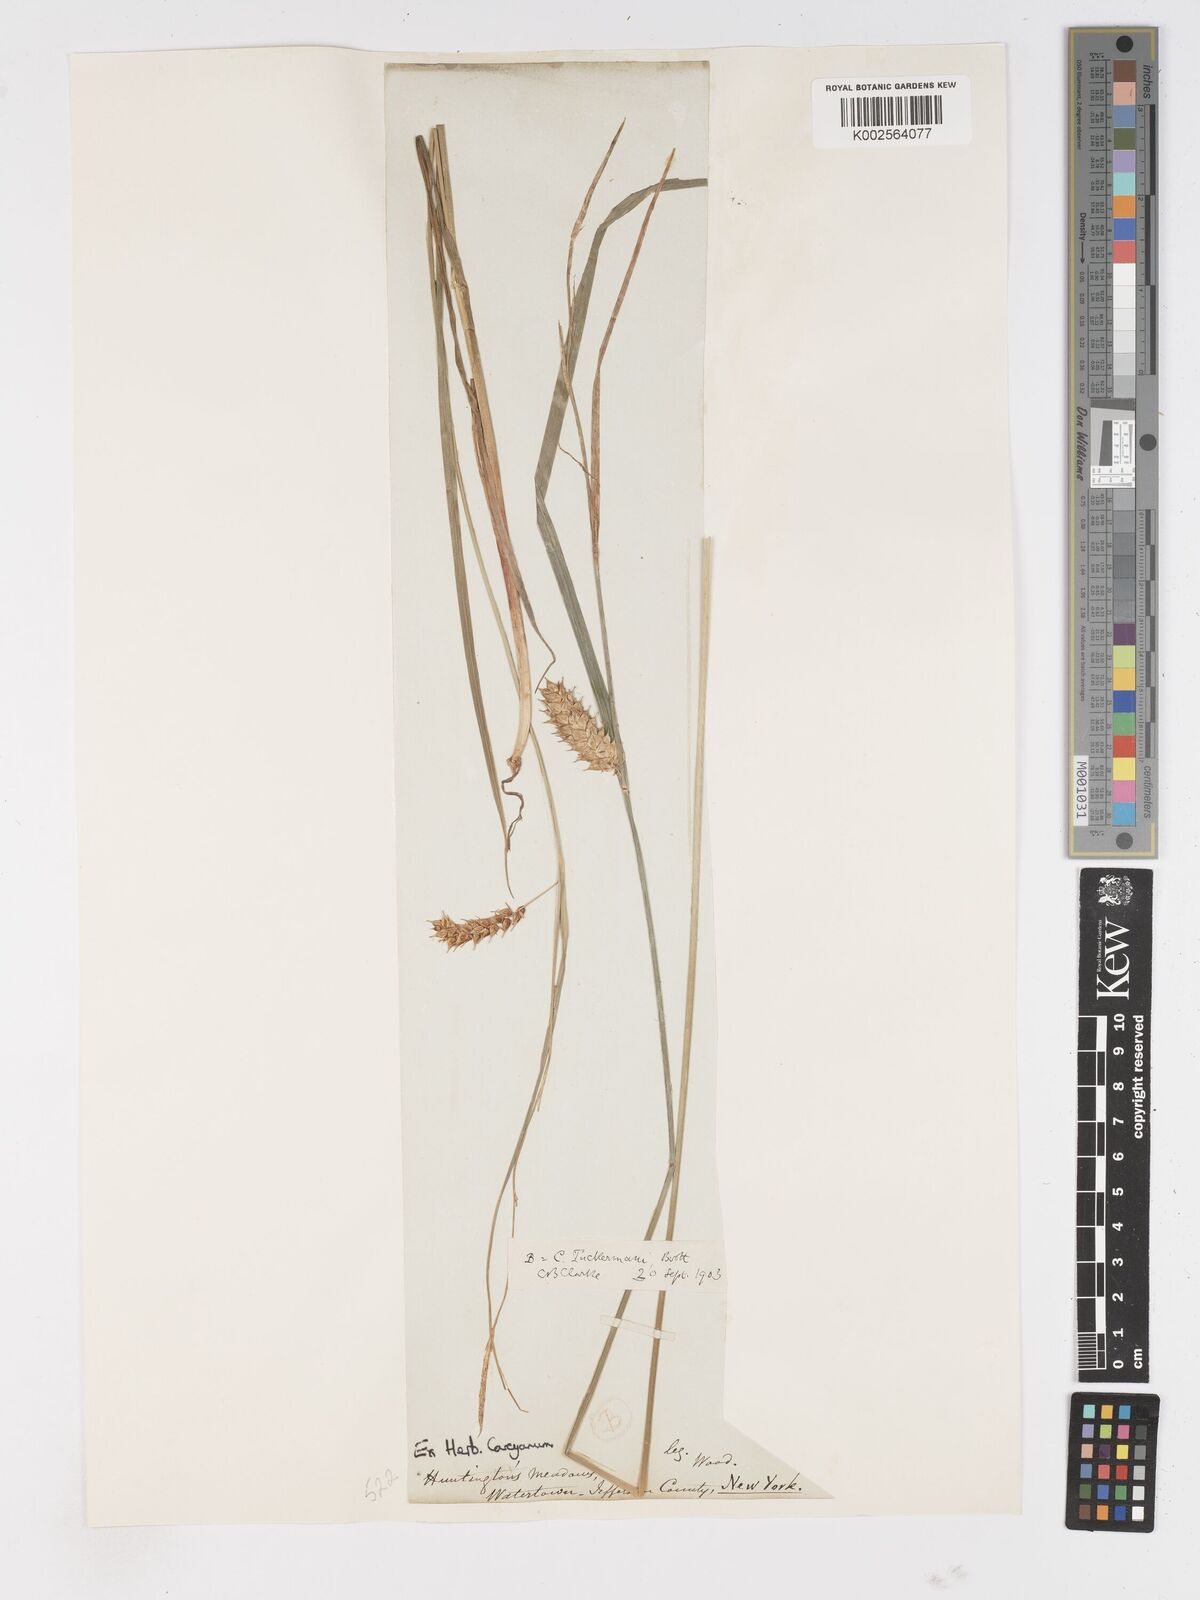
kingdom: Plantae
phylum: Tracheophyta
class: Liliopsida
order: Poales
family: Cyperaceae
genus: Carex
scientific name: Carex tuckermanii
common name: Tuckerman's sedge
